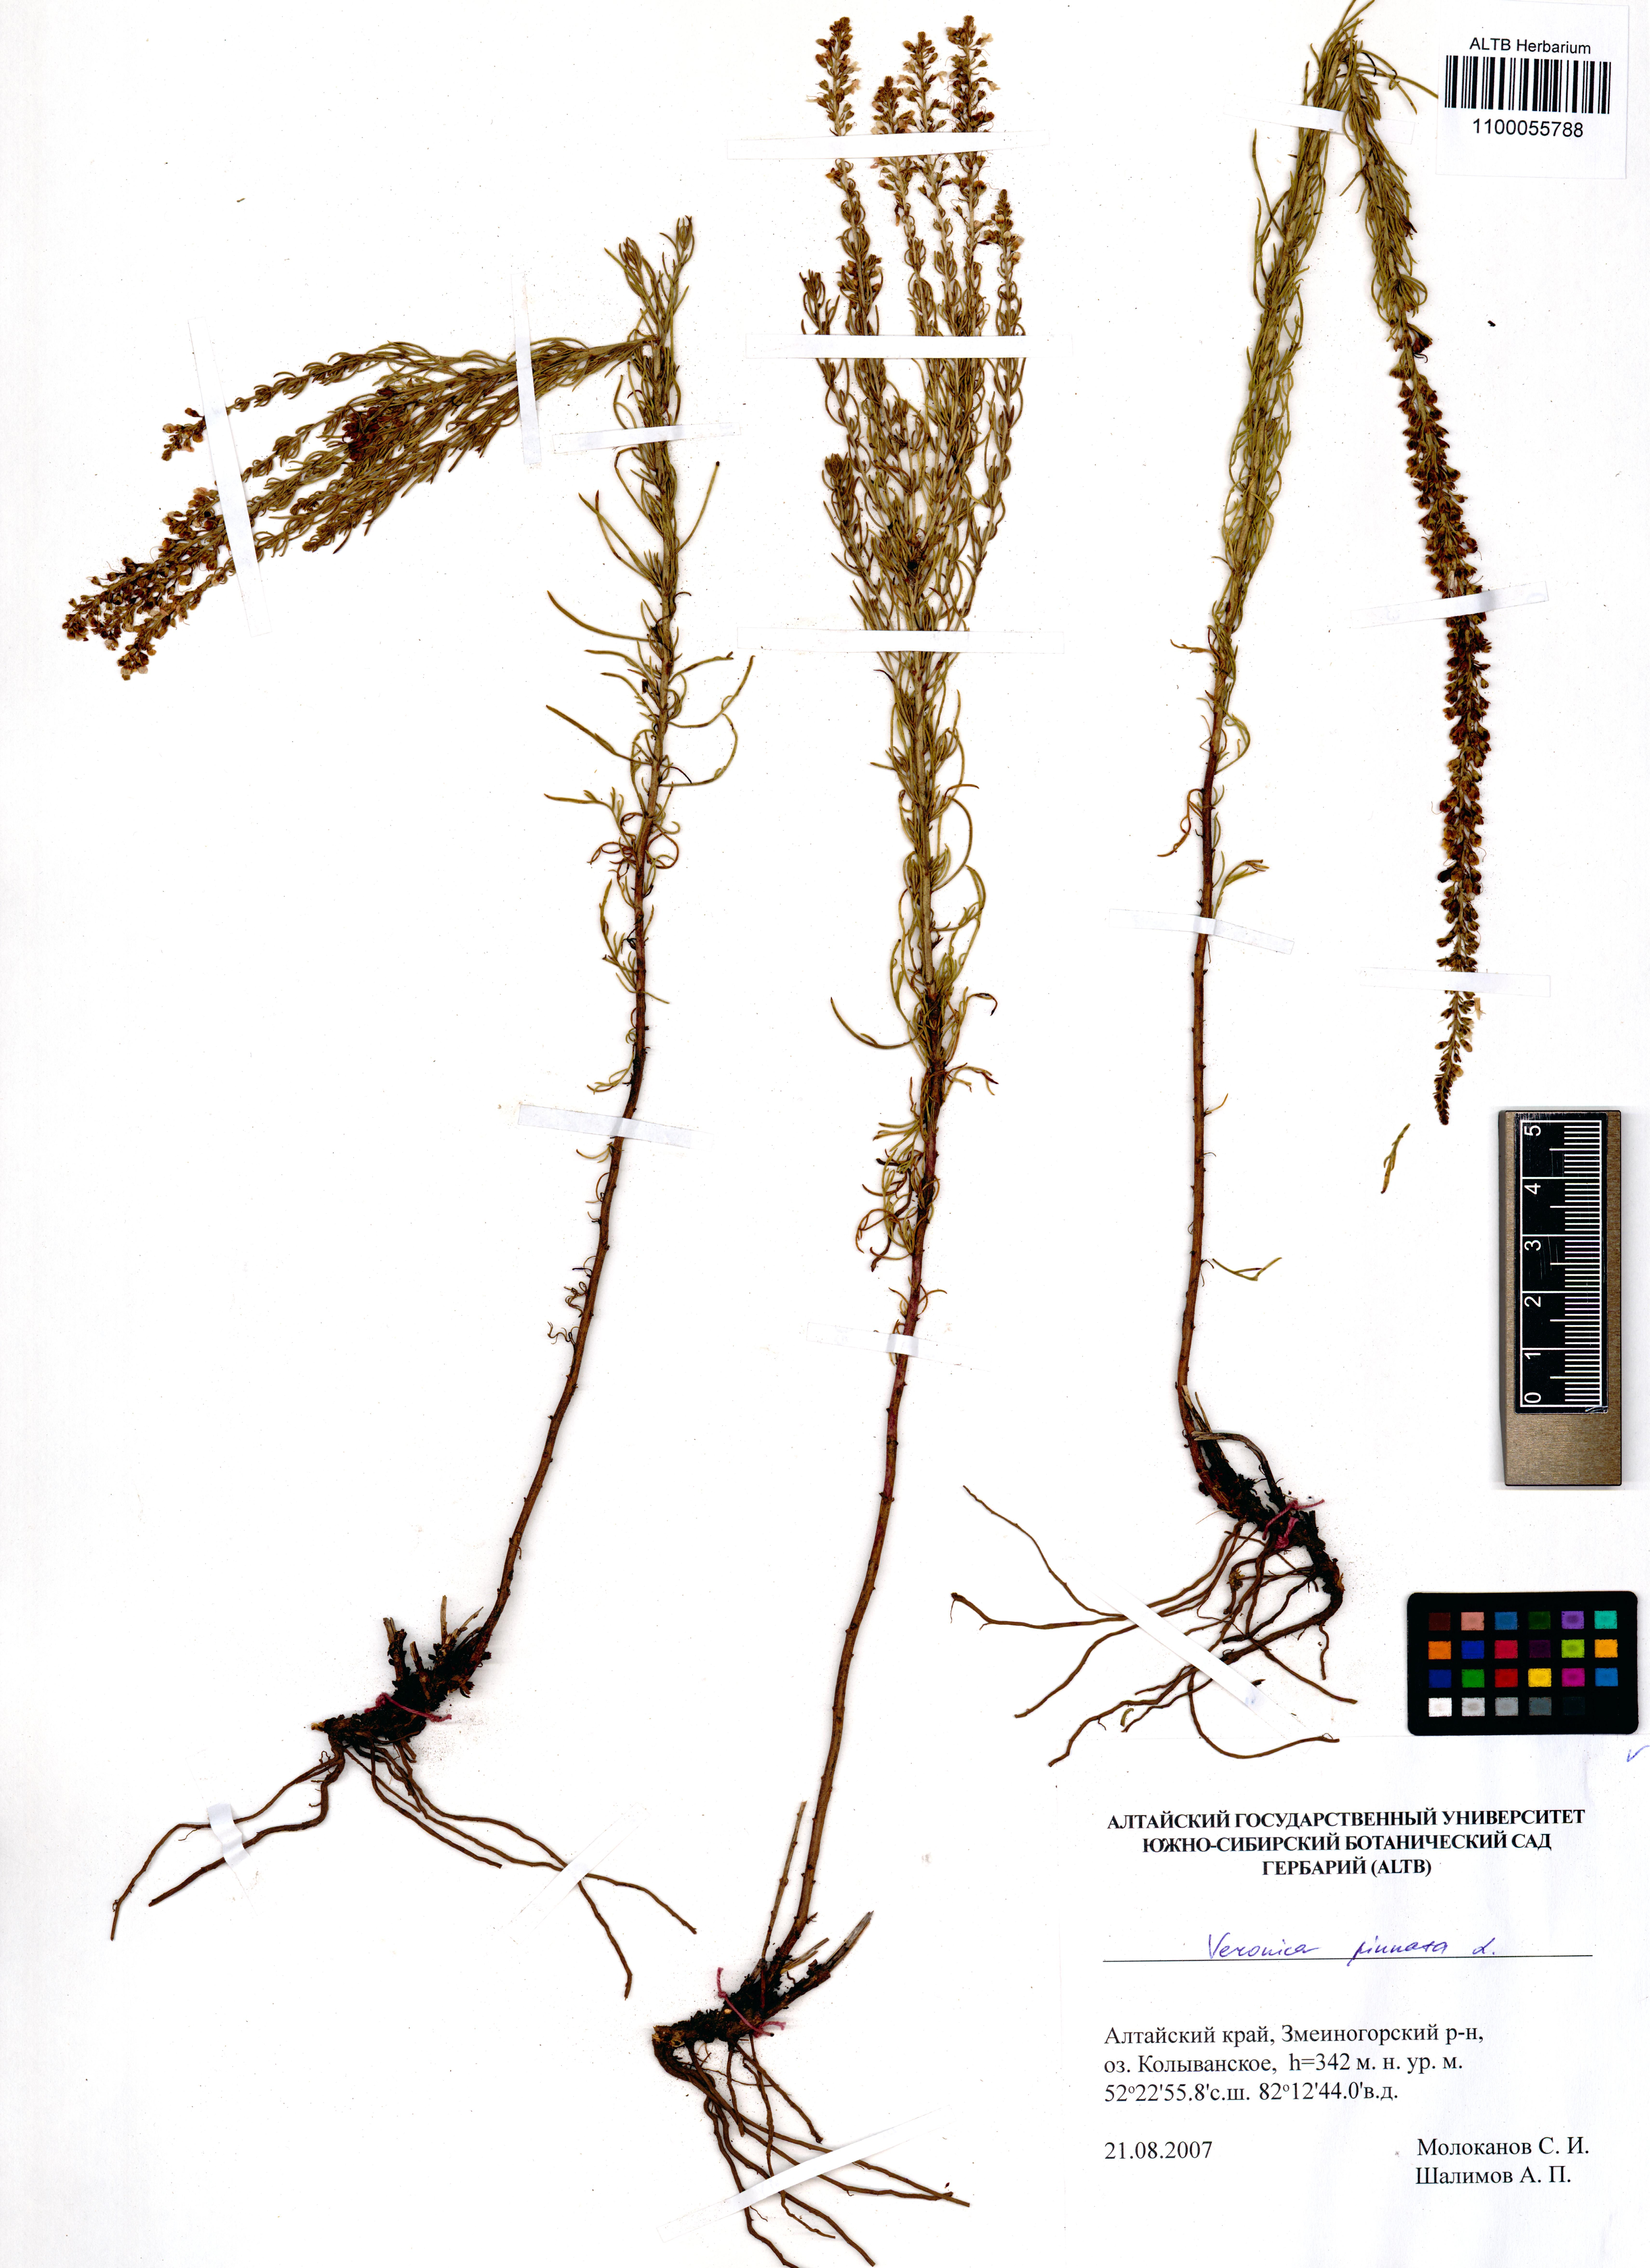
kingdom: Plantae
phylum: Tracheophyta
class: Magnoliopsida
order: Lamiales
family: Plantaginaceae
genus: Veronica
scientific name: Veronica pinnata
